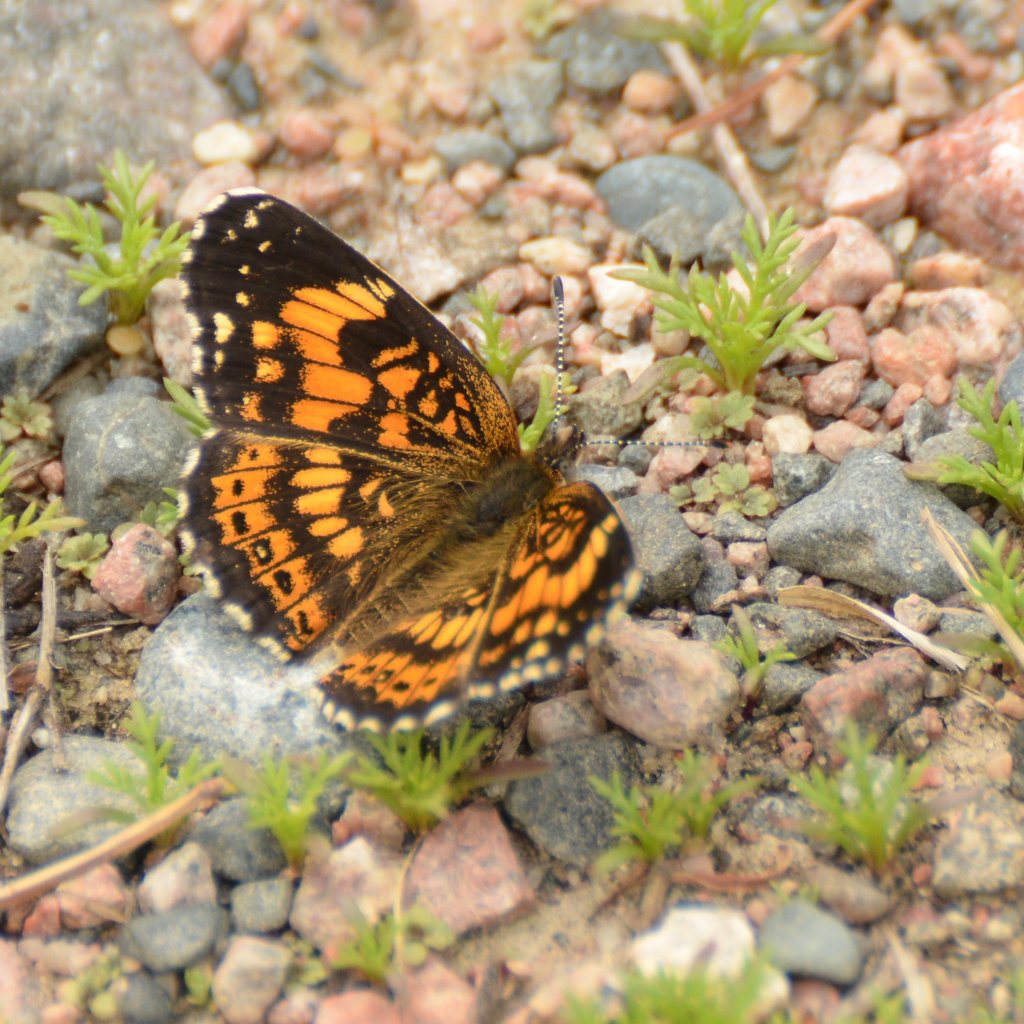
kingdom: Animalia
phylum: Arthropoda
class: Insecta
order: Lepidoptera
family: Nymphalidae
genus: Chlosyne
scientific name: Chlosyne nycteis
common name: Silvery Checkerspot
